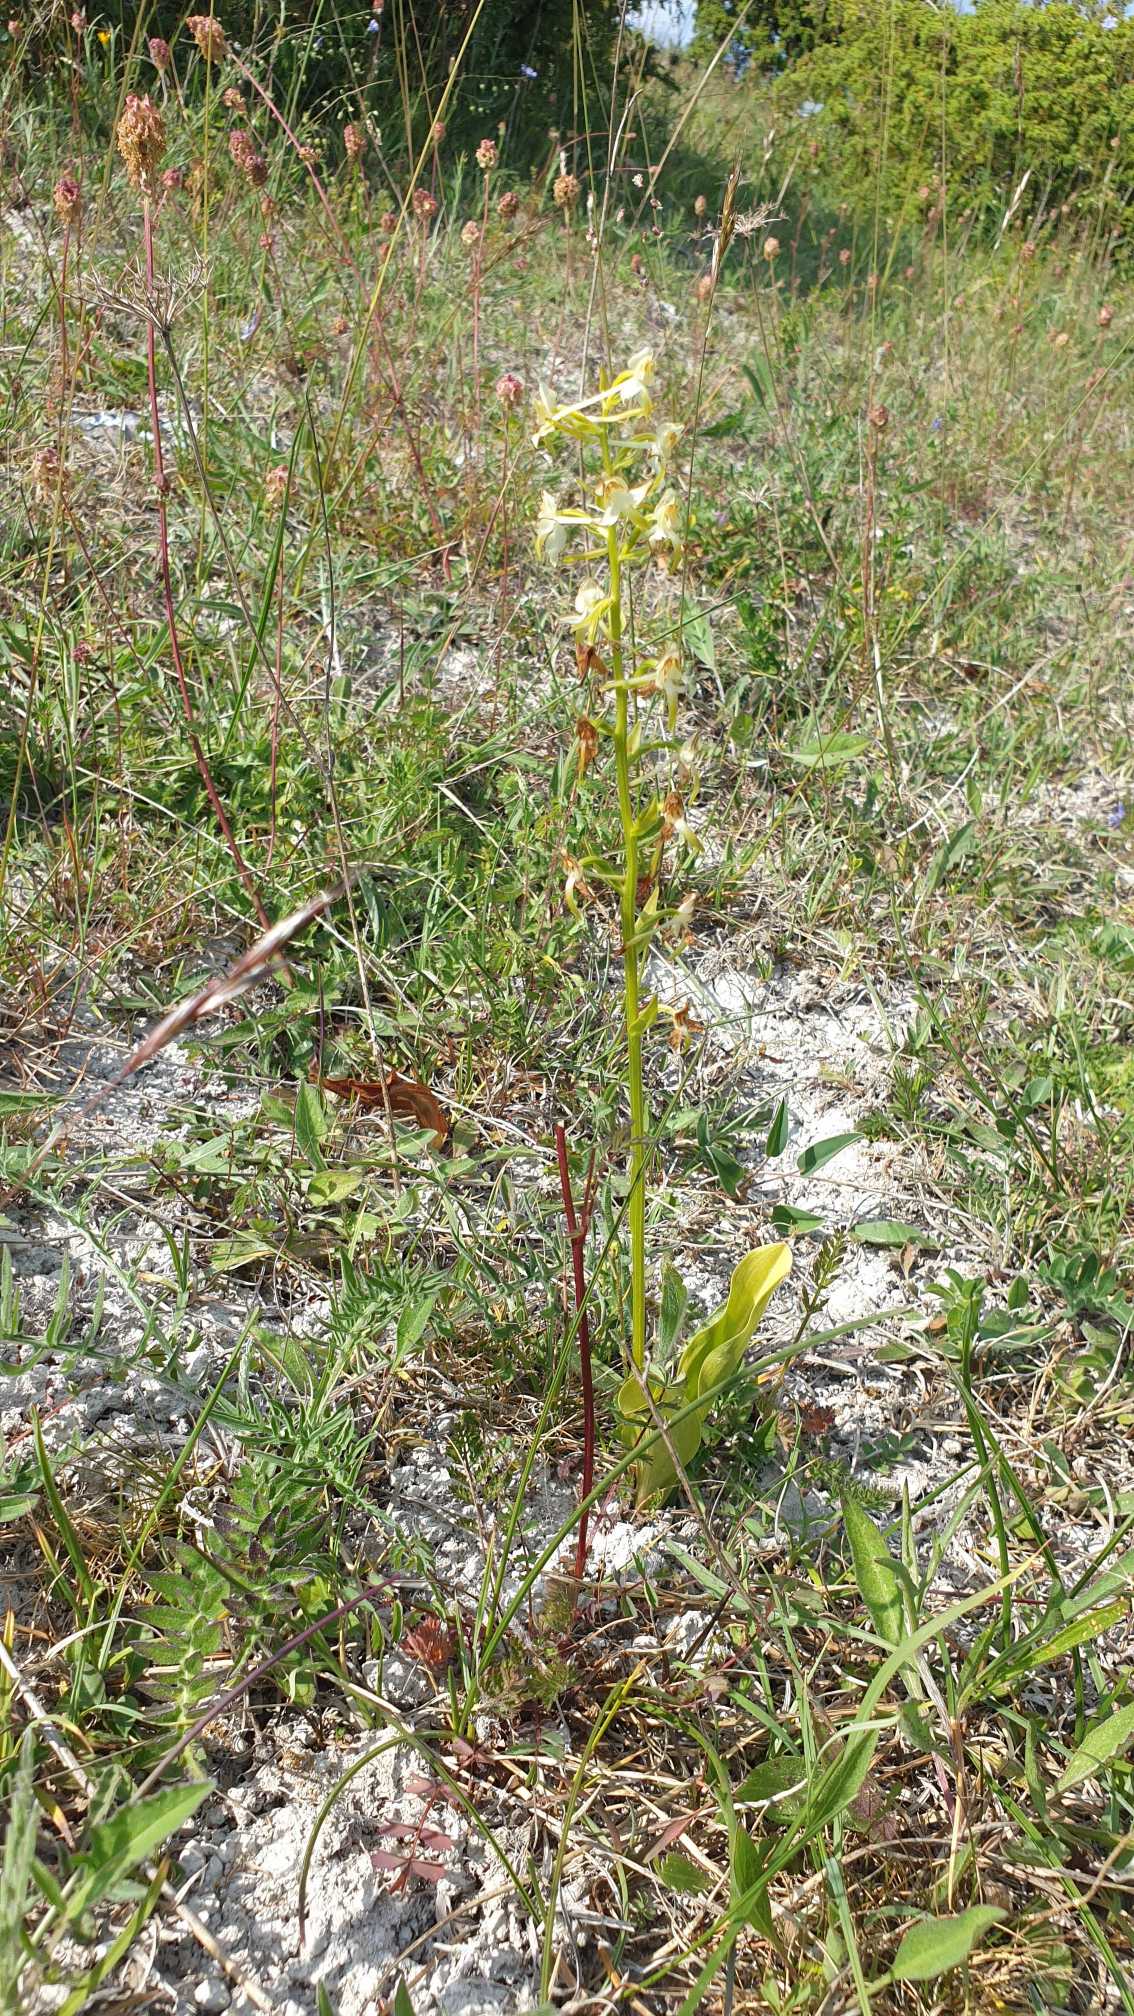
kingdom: Plantae
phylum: Tracheophyta
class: Liliopsida
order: Asparagales
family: Orchidaceae
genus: Platanthera
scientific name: Platanthera chlorantha
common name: Skov-gøgelilje
